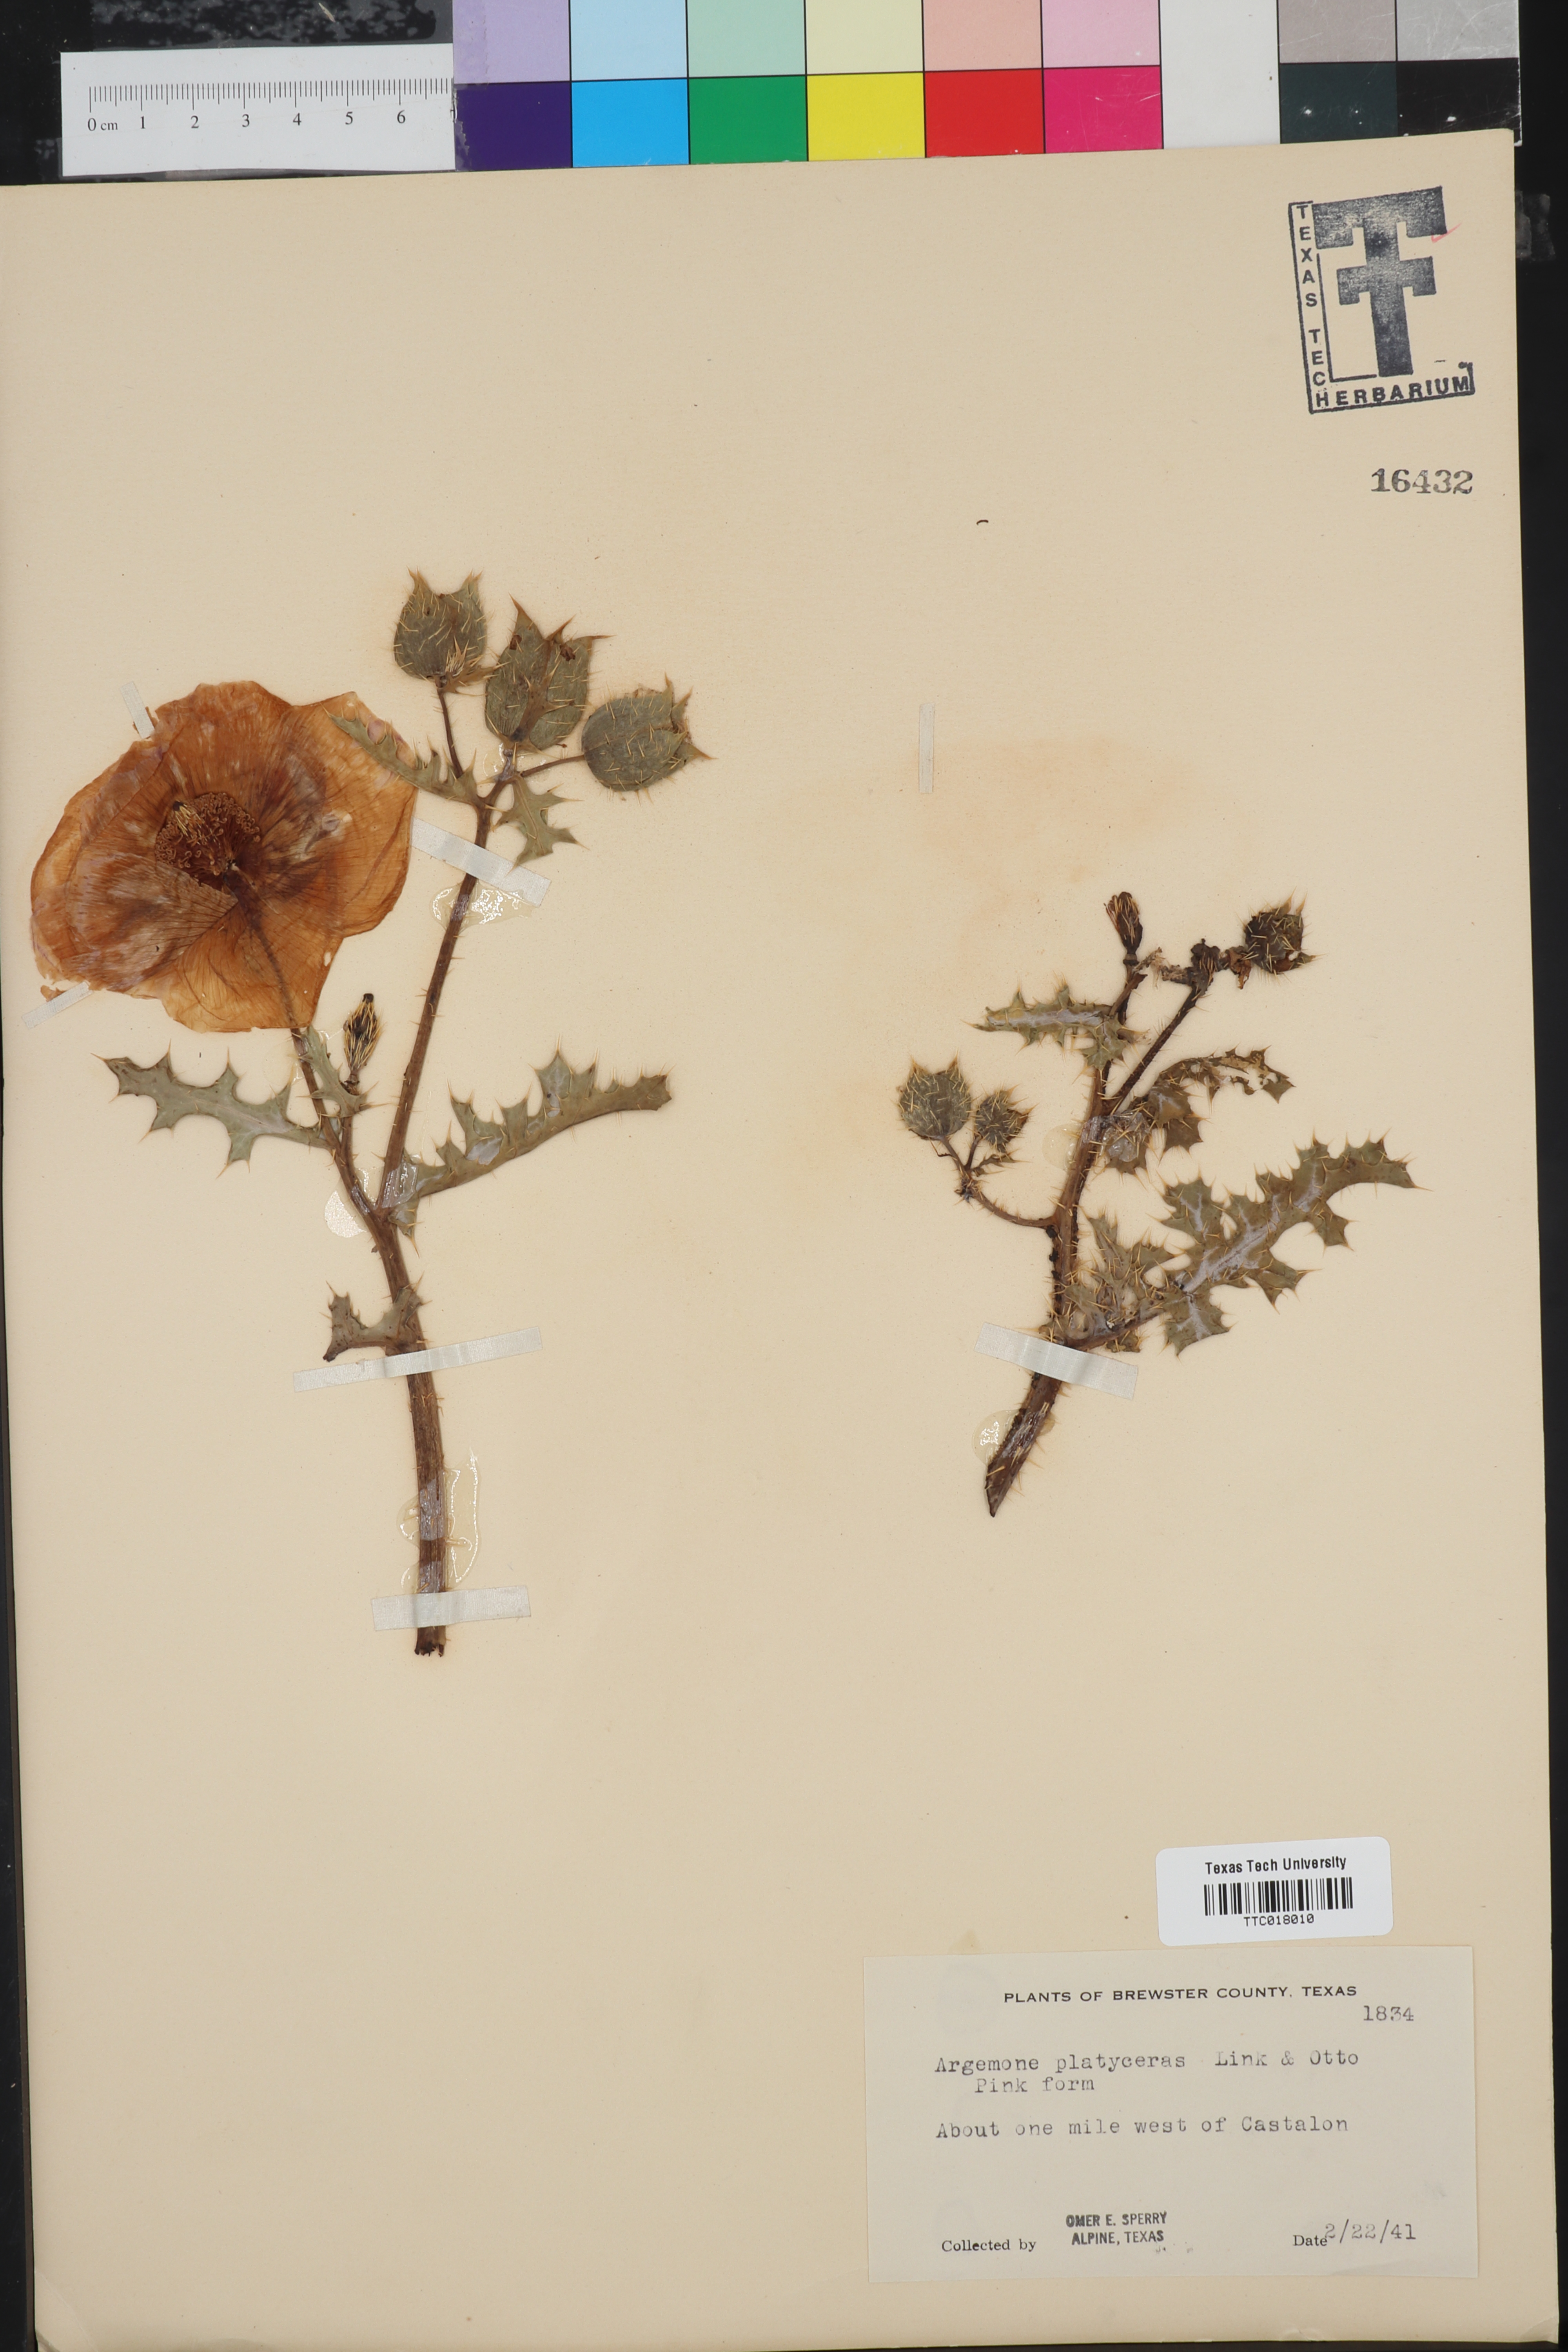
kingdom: Plantae
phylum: Tracheophyta
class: Magnoliopsida
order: Ranunculales
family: Papaveraceae
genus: Argemone
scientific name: Argemone platyceras
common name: Crested-poppy
